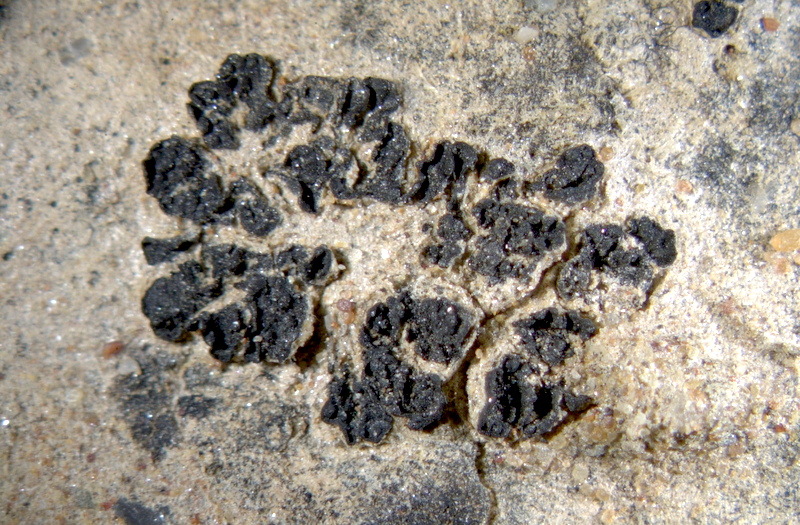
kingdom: Fungi
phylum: Ascomycota
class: Lecanoromycetes
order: Peltigerales
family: Collemataceae
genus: Enchylium
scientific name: Enchylium coccophorum
